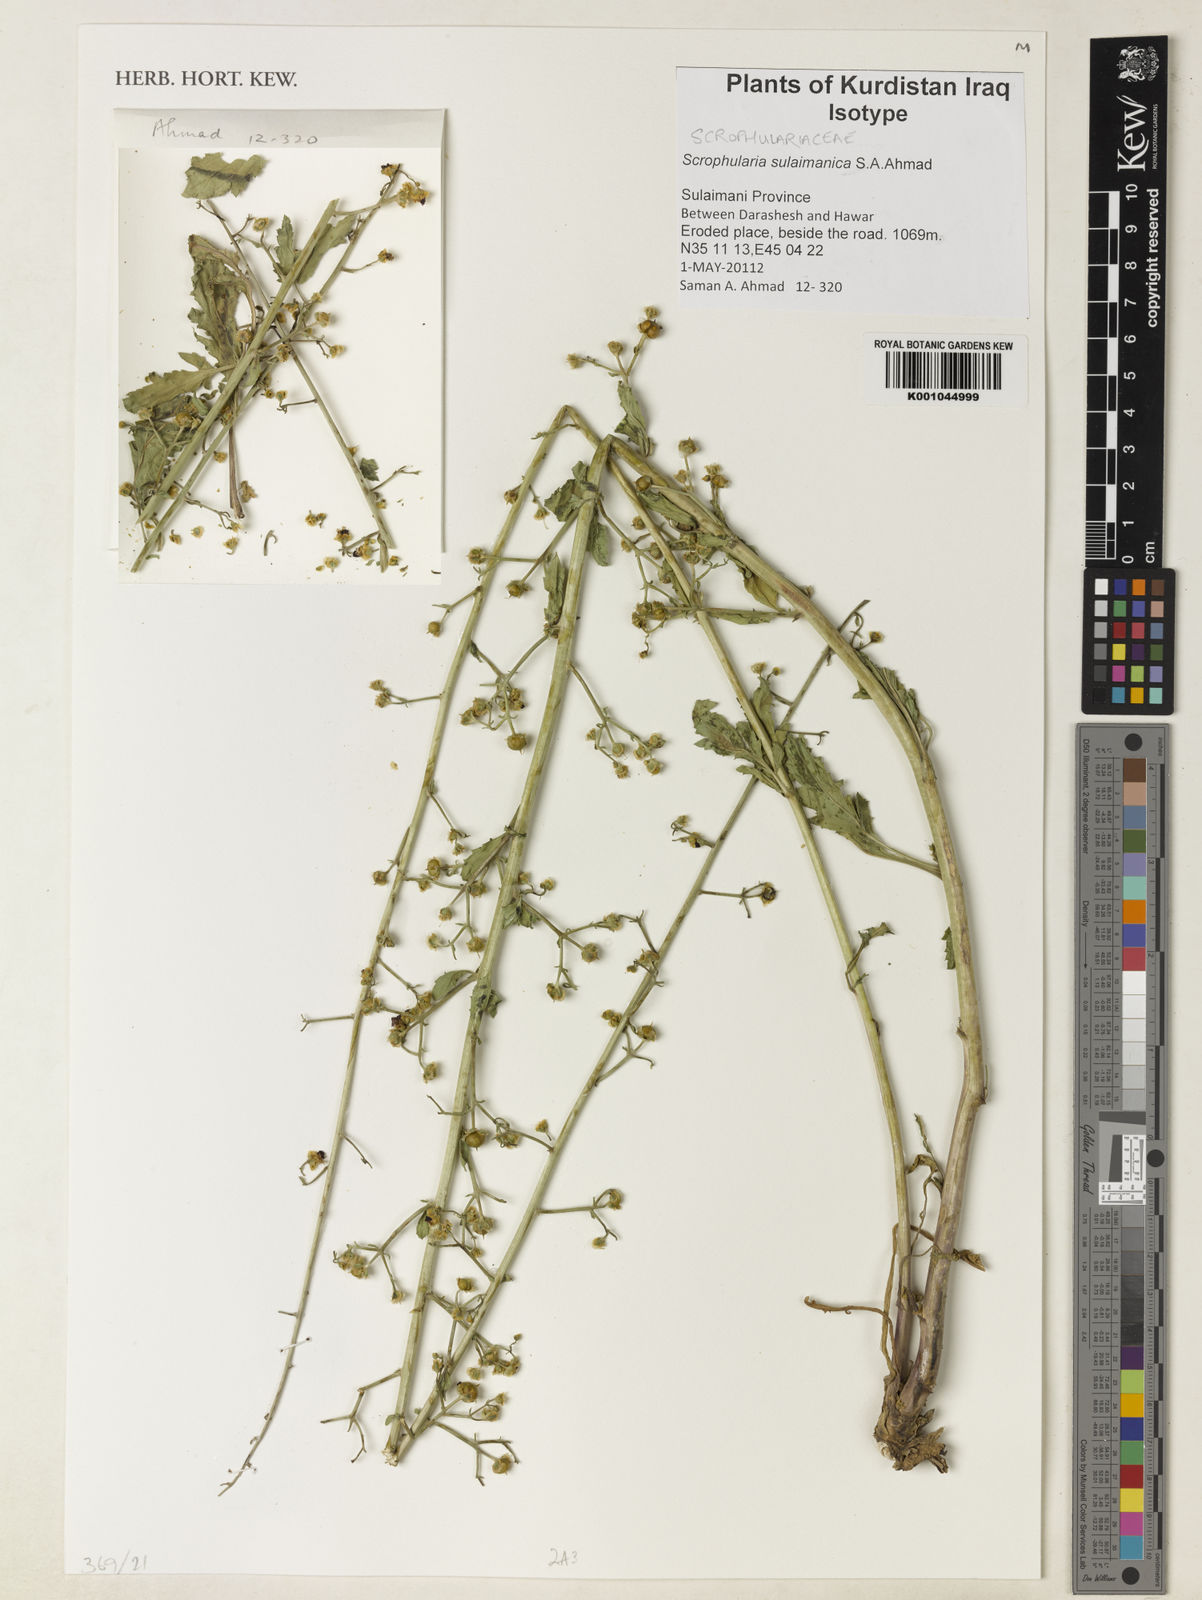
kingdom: Plantae
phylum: Tracheophyta
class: Magnoliopsida
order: Lamiales
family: Scrophulariaceae
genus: Scrophularia
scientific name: Scrophularia sulaimanica
